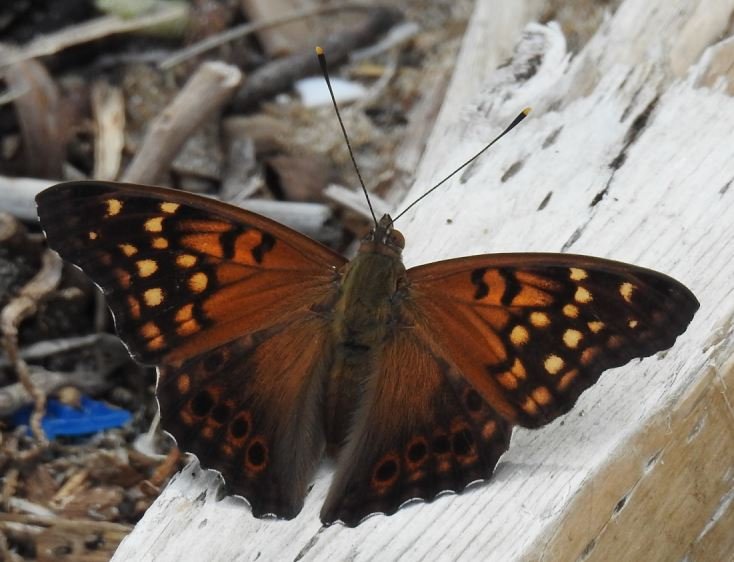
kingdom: Animalia
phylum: Arthropoda
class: Insecta
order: Lepidoptera
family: Nymphalidae
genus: Asterocampa
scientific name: Asterocampa clyton
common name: Tawny Emperor
